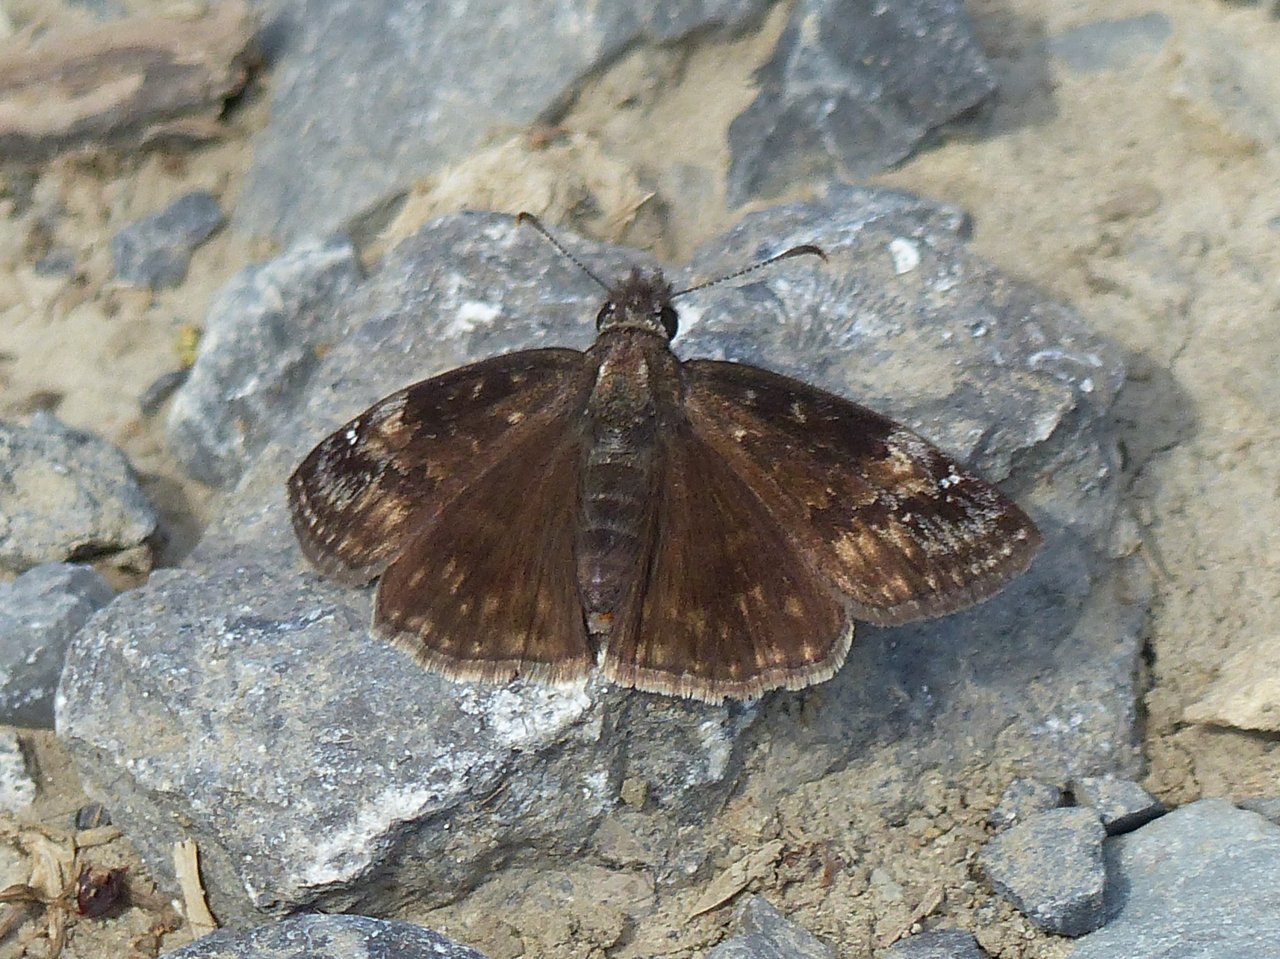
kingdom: Animalia
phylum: Arthropoda
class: Insecta
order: Lepidoptera
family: Hesperiidae
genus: Gesta
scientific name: Gesta
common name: Wild Indigo Duskywing
